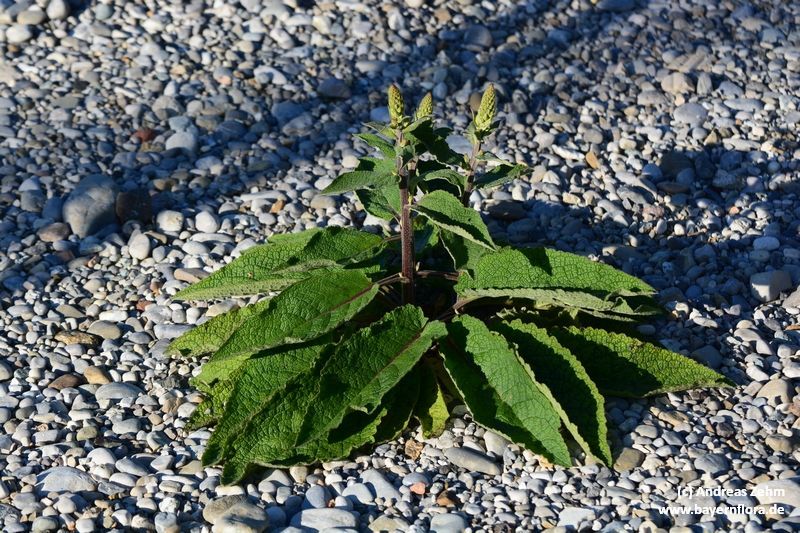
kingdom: Plantae
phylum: Tracheophyta
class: Magnoliopsida
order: Lamiales
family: Scrophulariaceae
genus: Verbascum
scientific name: Verbascum nigrum
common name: Dark mullein
